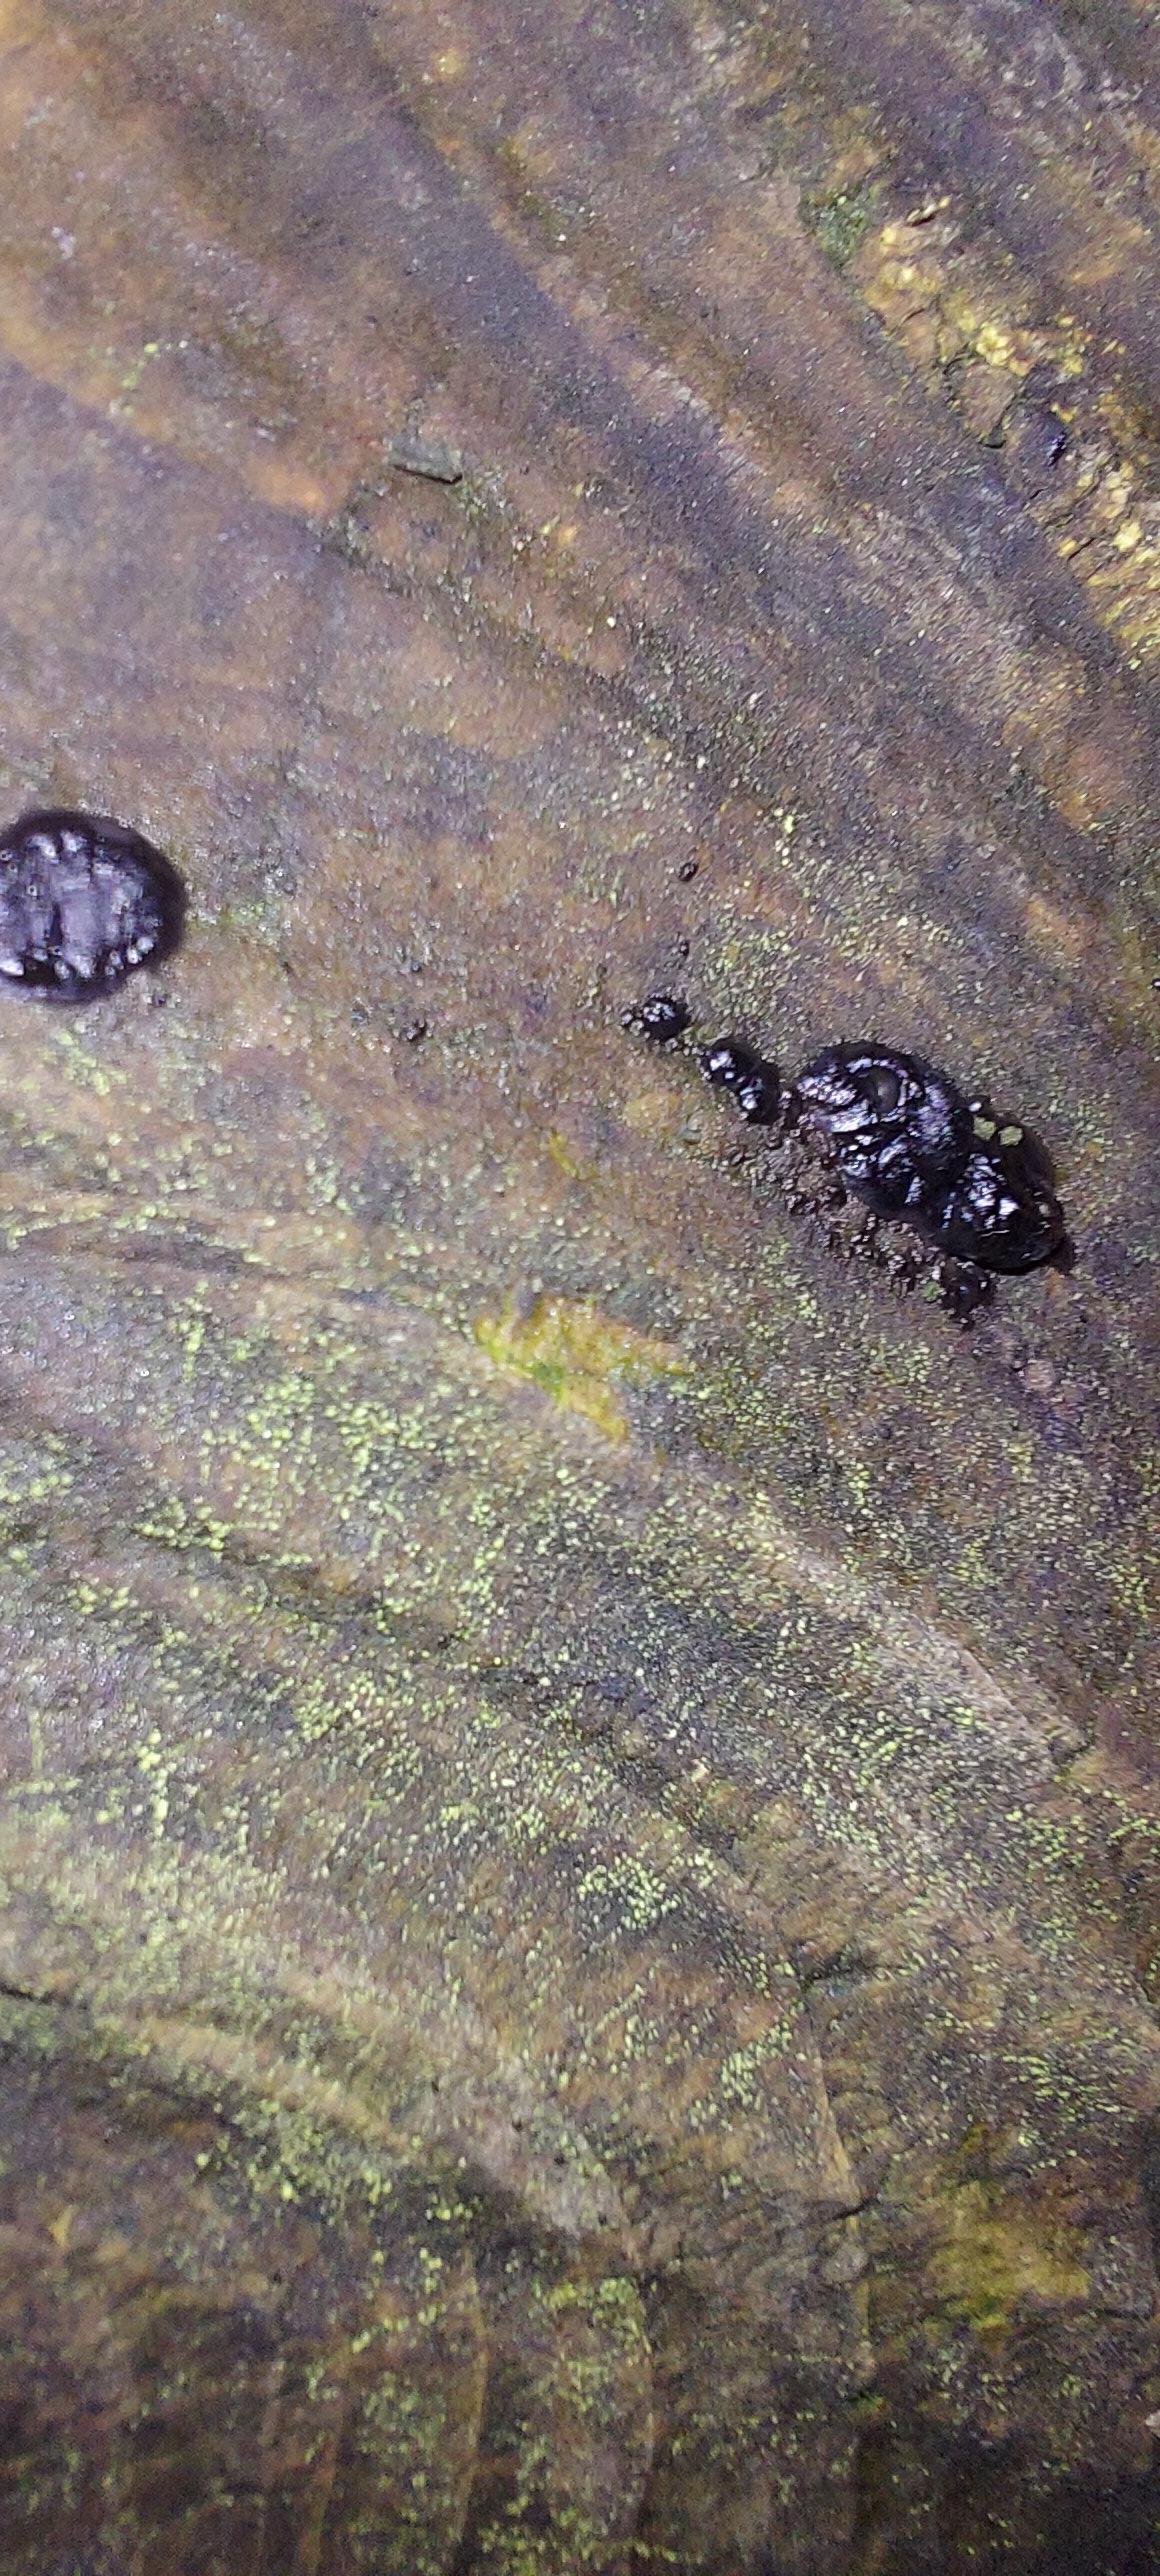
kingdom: Fungi
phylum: Basidiomycota
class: Agaricomycetes
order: Auriculariales
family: Auriculariaceae
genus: Exidia
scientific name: Exidia pithya
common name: gran-bævretop
